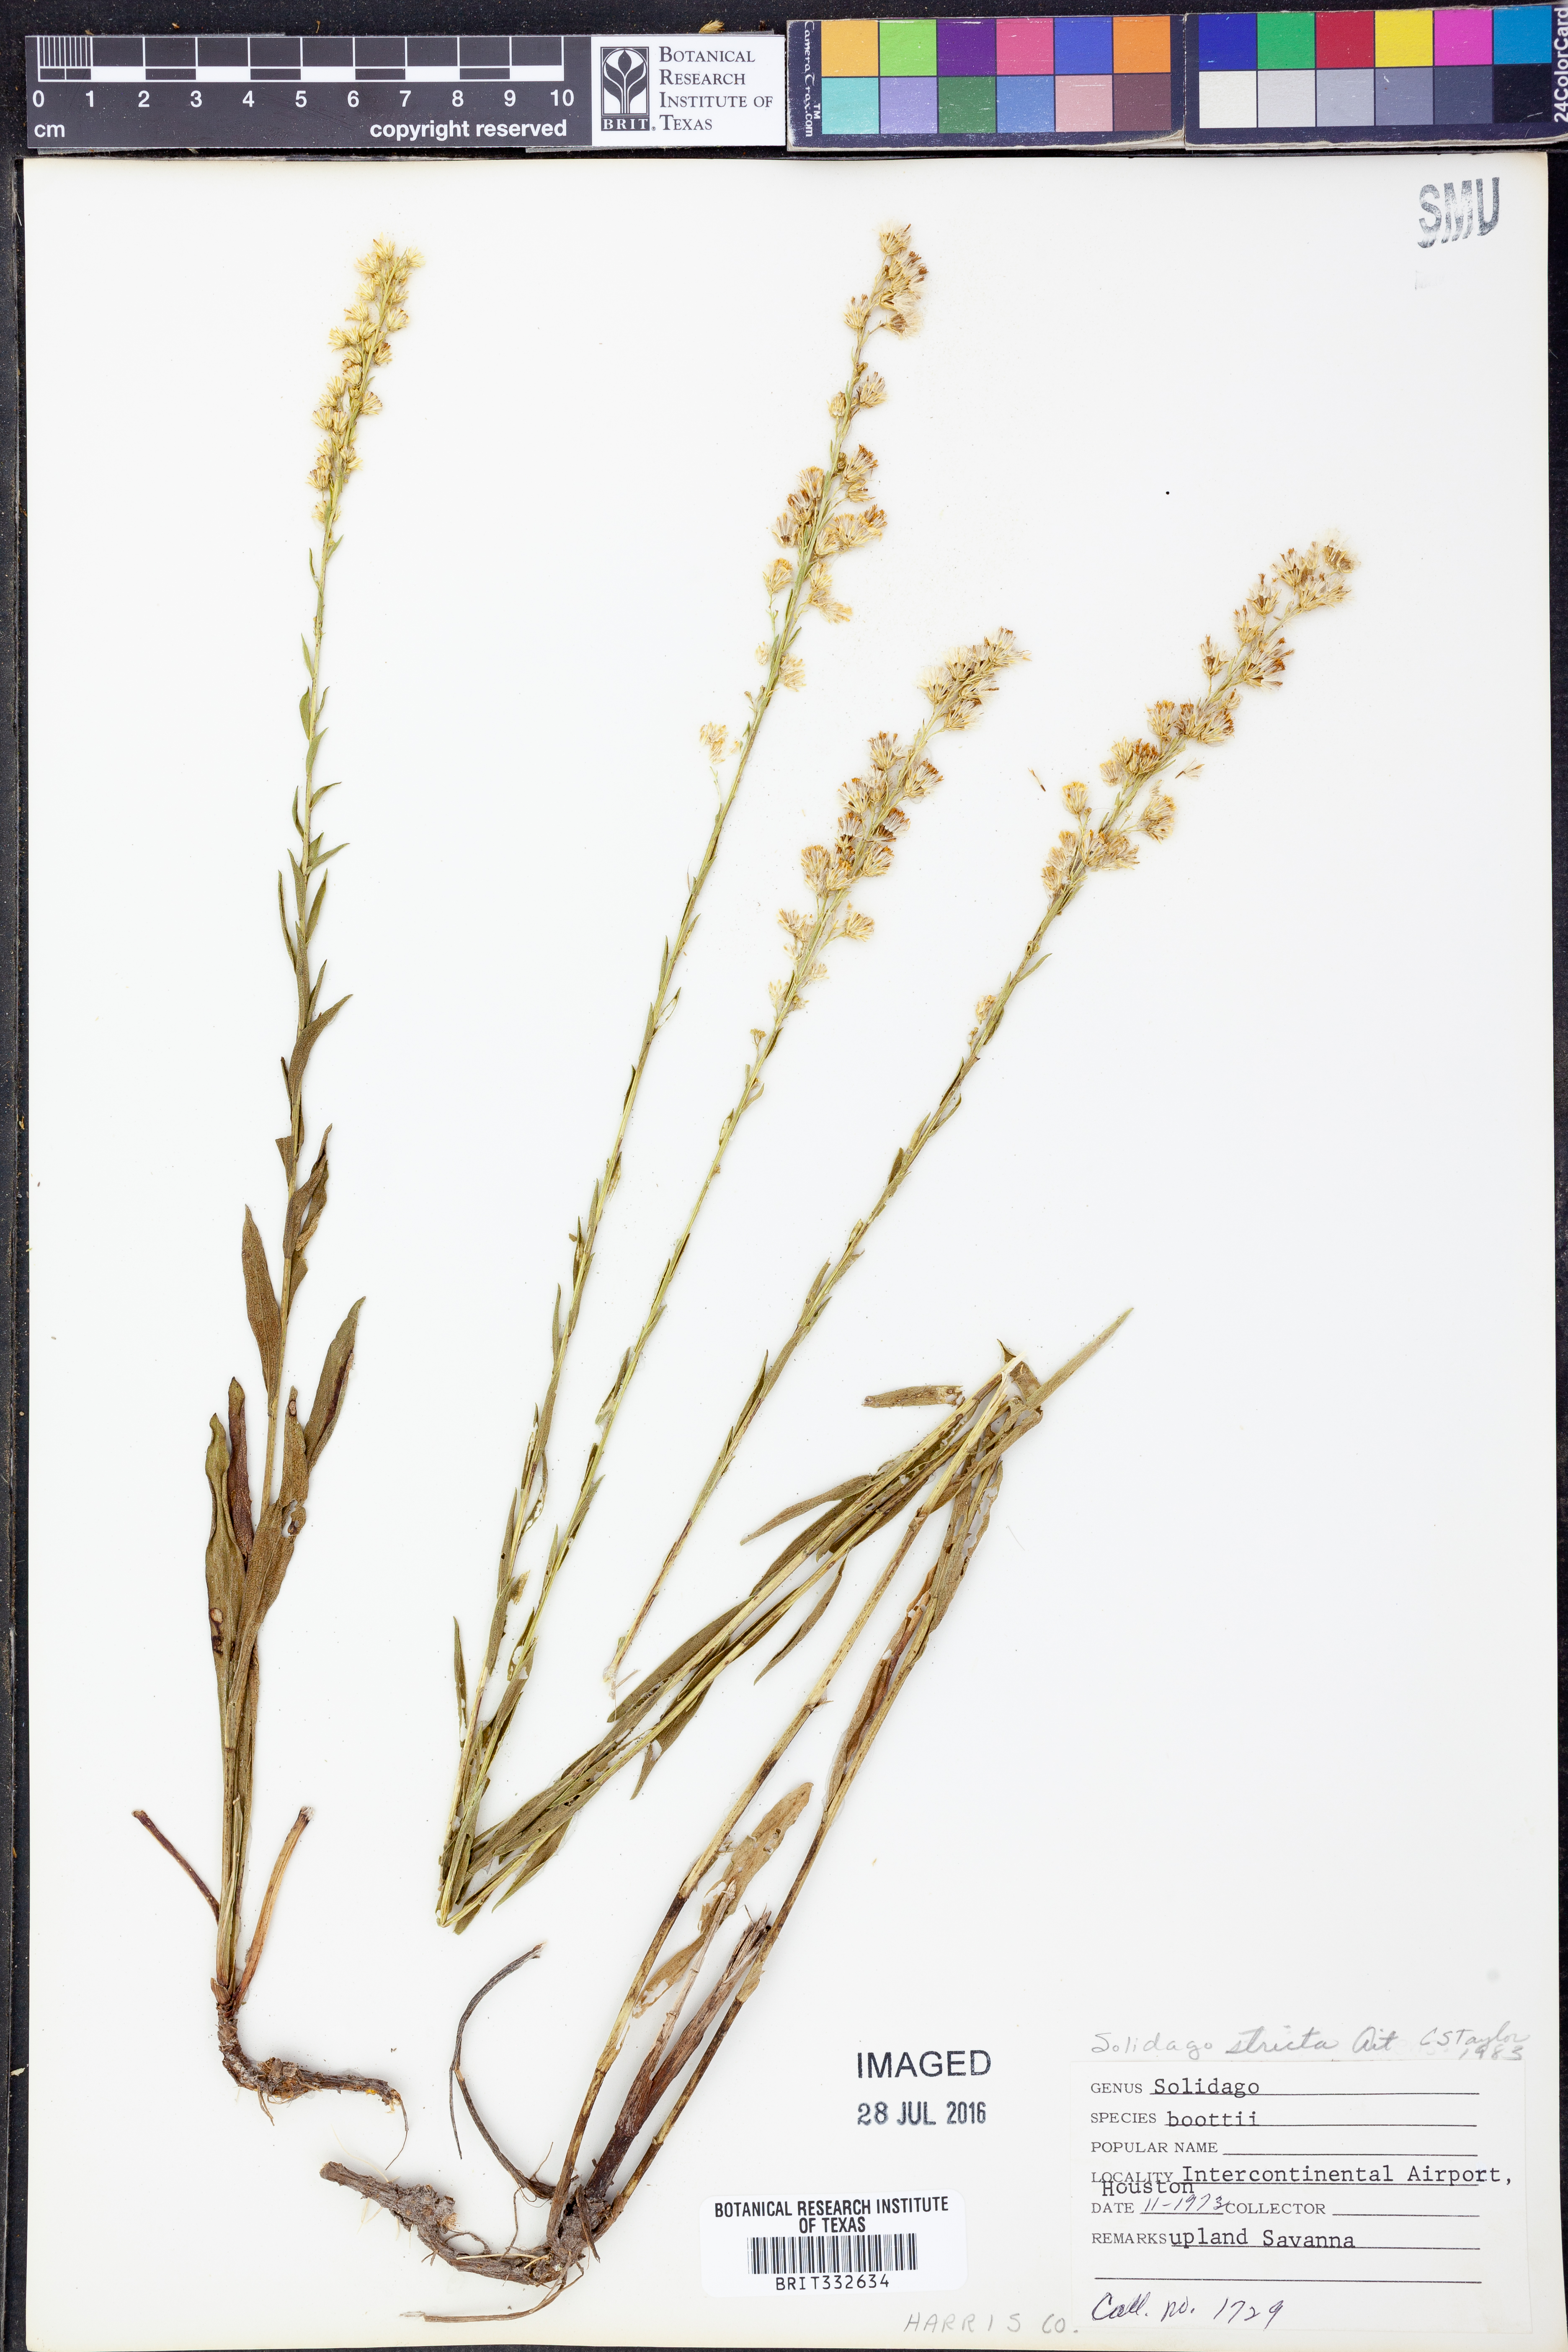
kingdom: Plantae
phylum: Tracheophyta
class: Magnoliopsida
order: Asterales
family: Asteraceae
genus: Solidago
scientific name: Solidago stricta
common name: Pine barren bog goldenrod
